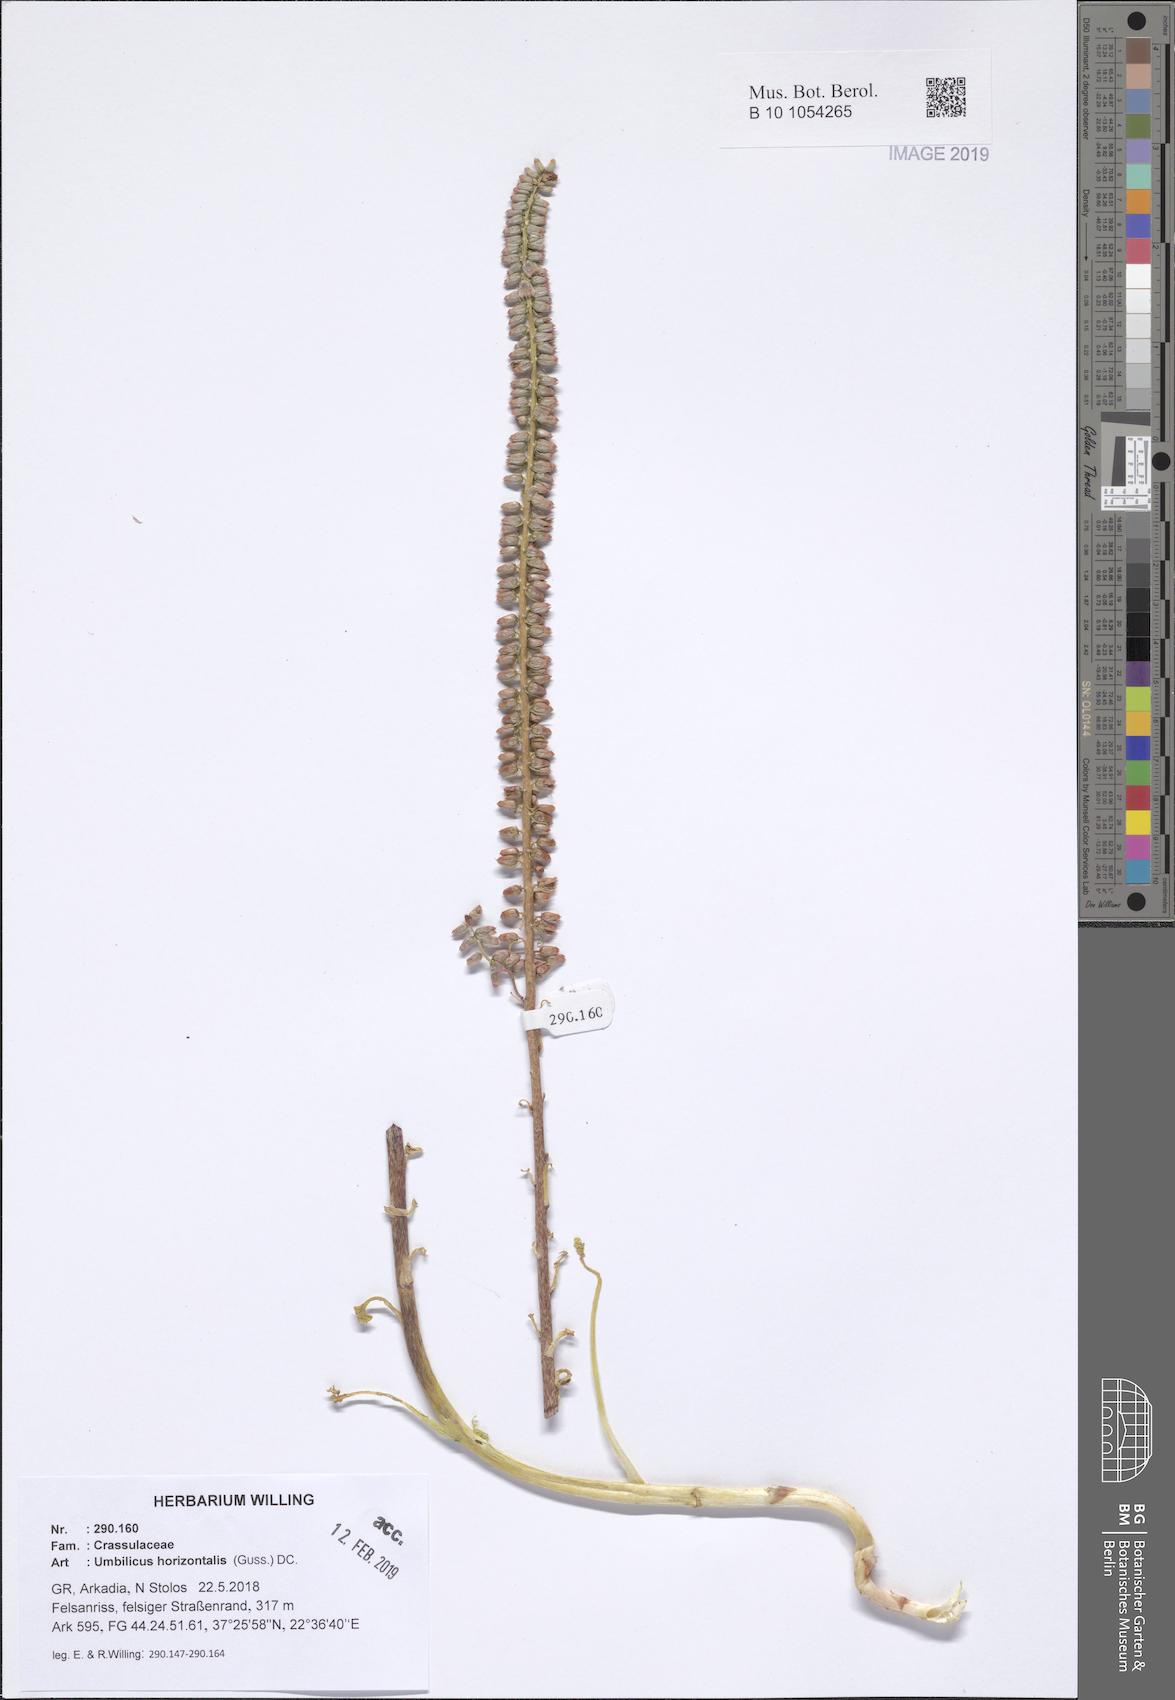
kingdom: Plantae
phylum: Tracheophyta
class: Magnoliopsida
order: Saxifragales
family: Crassulaceae
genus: Umbilicus
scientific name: Umbilicus horizontalis
